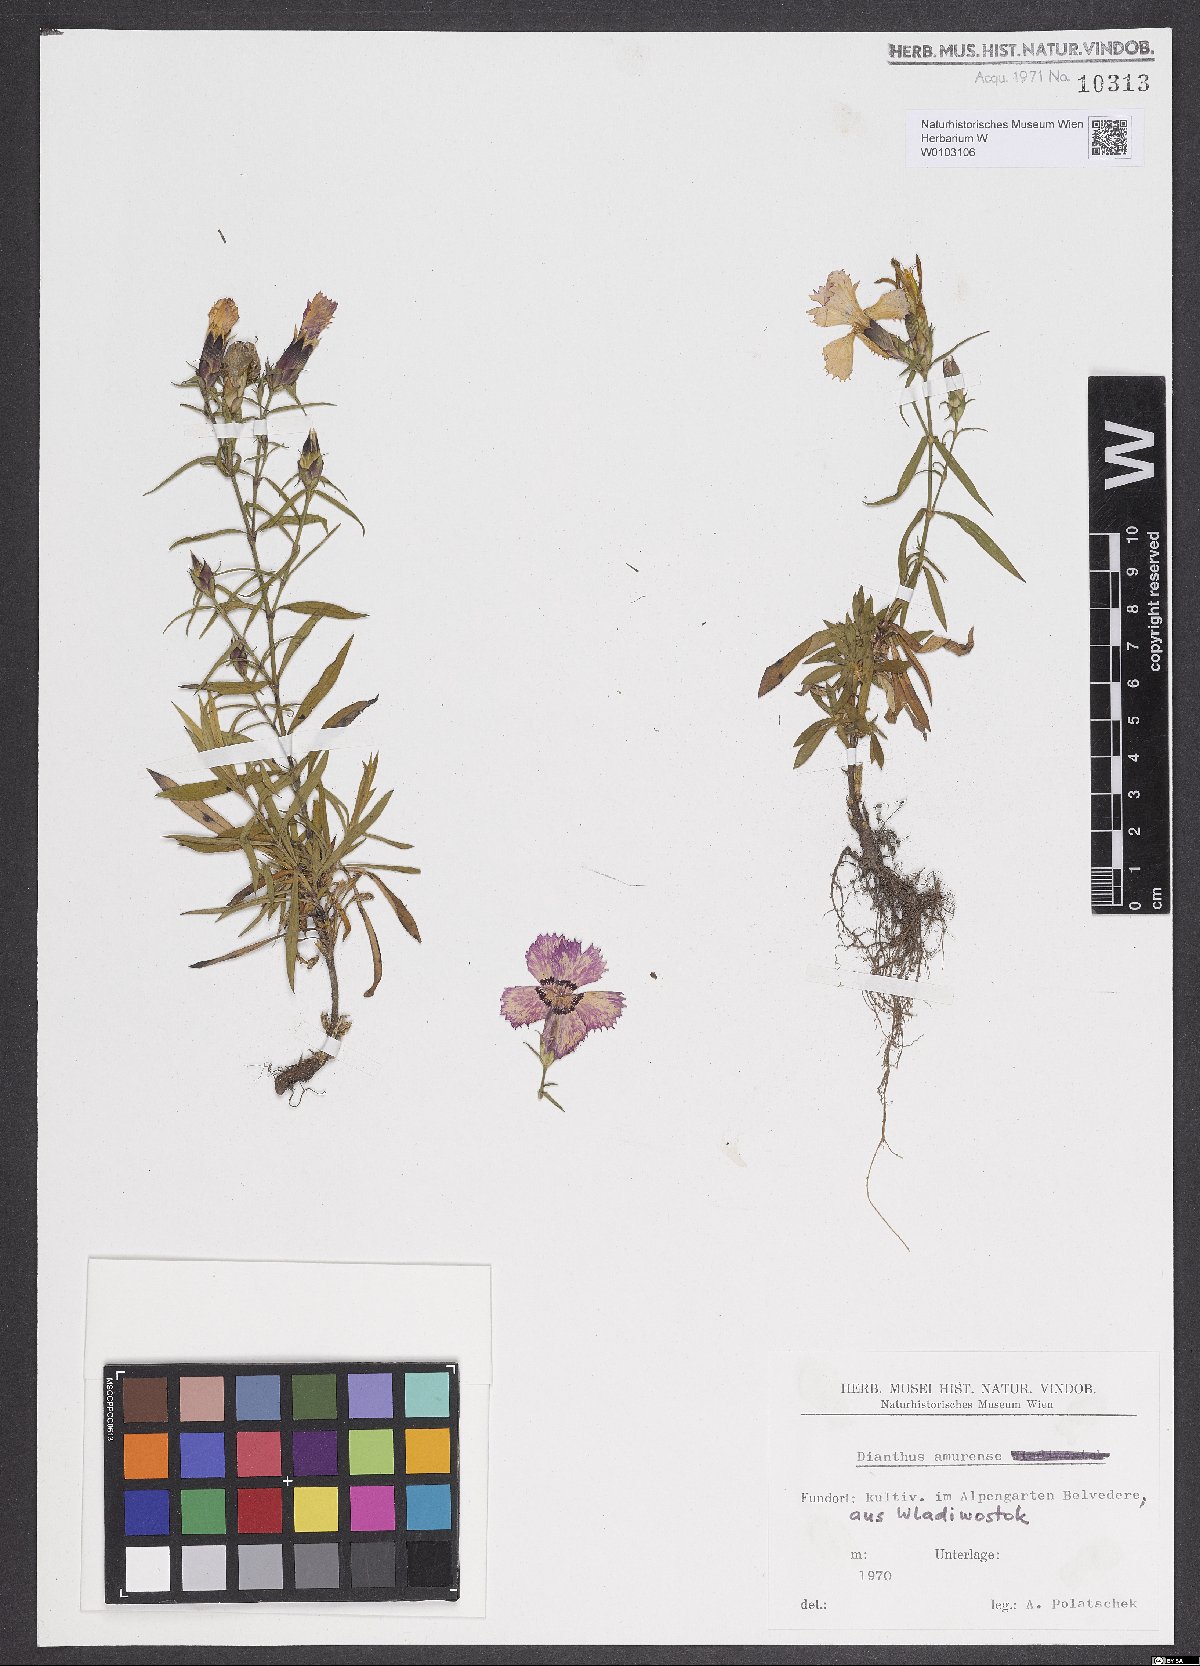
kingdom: Plantae
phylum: Tracheophyta
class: Magnoliopsida
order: Caryophyllales
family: Caryophyllaceae
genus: Dianthus
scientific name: Dianthus chinensis
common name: Rainbow pink
